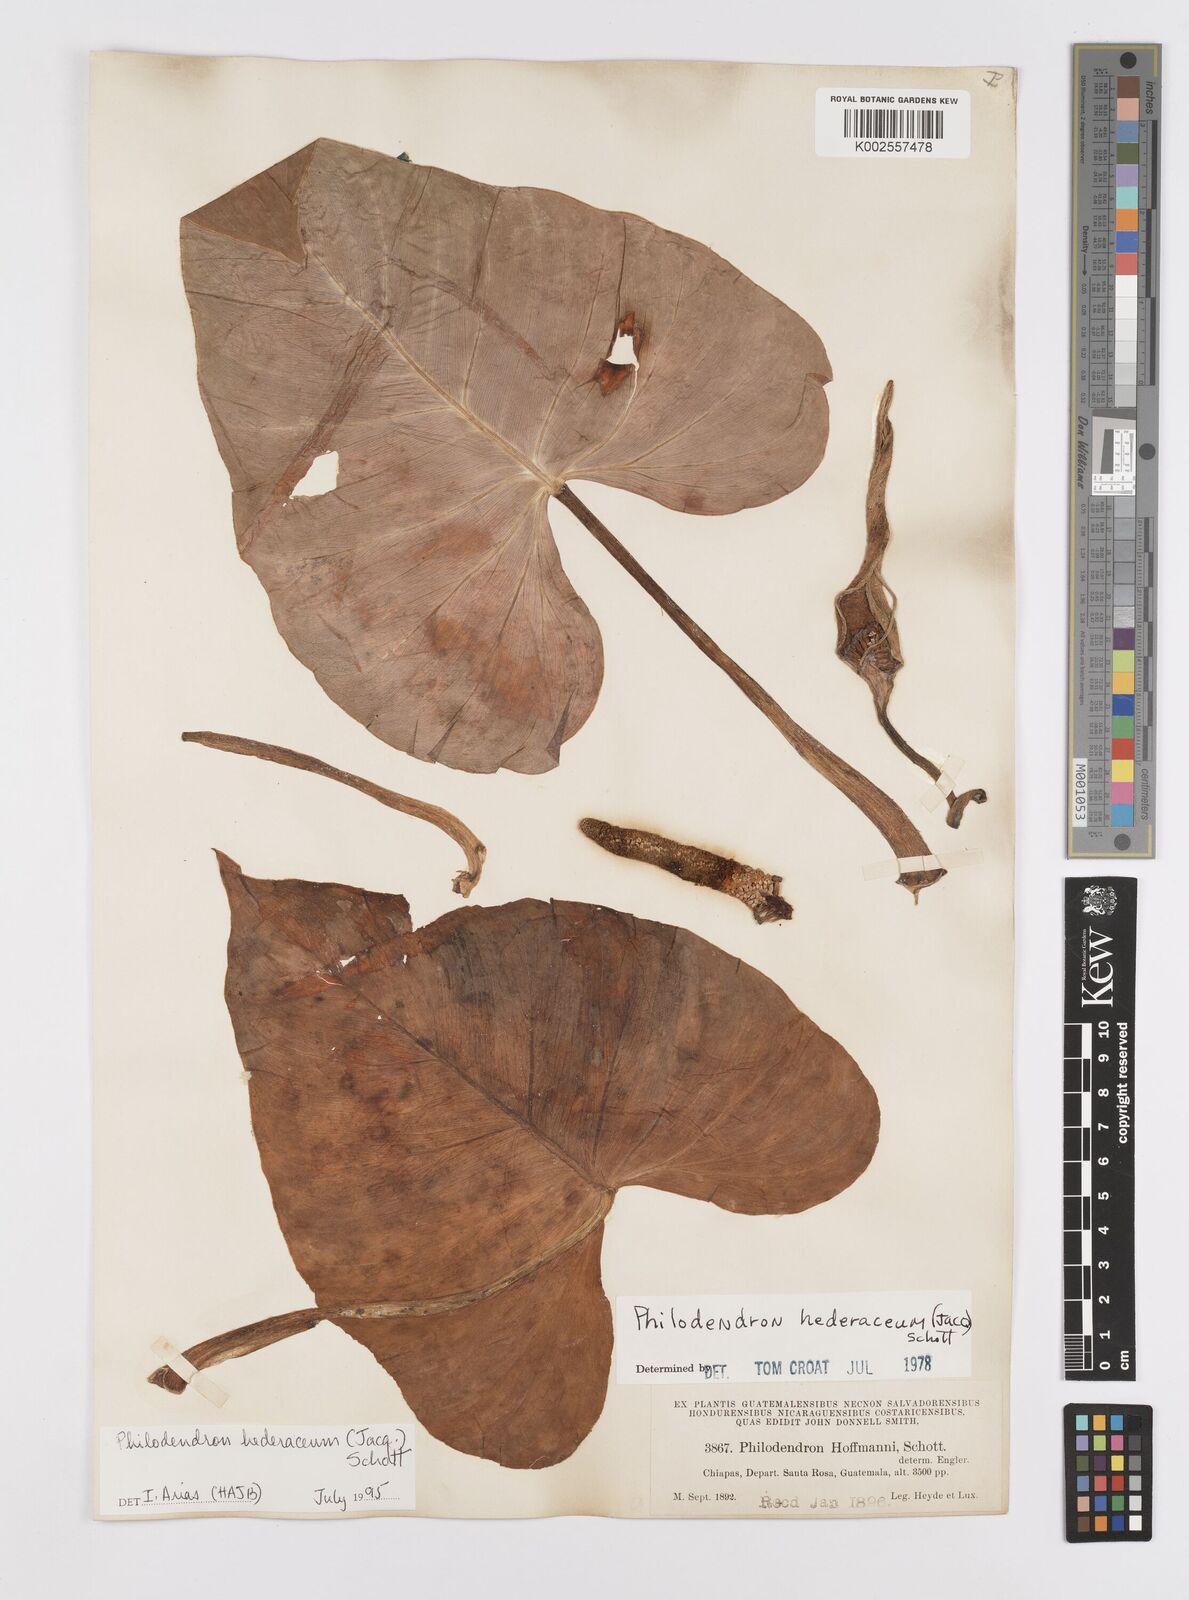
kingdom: Plantae
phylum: Tracheophyta
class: Liliopsida
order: Alismatales
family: Araceae
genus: Philodendron
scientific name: Philodendron hederaceum
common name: Vilevine
